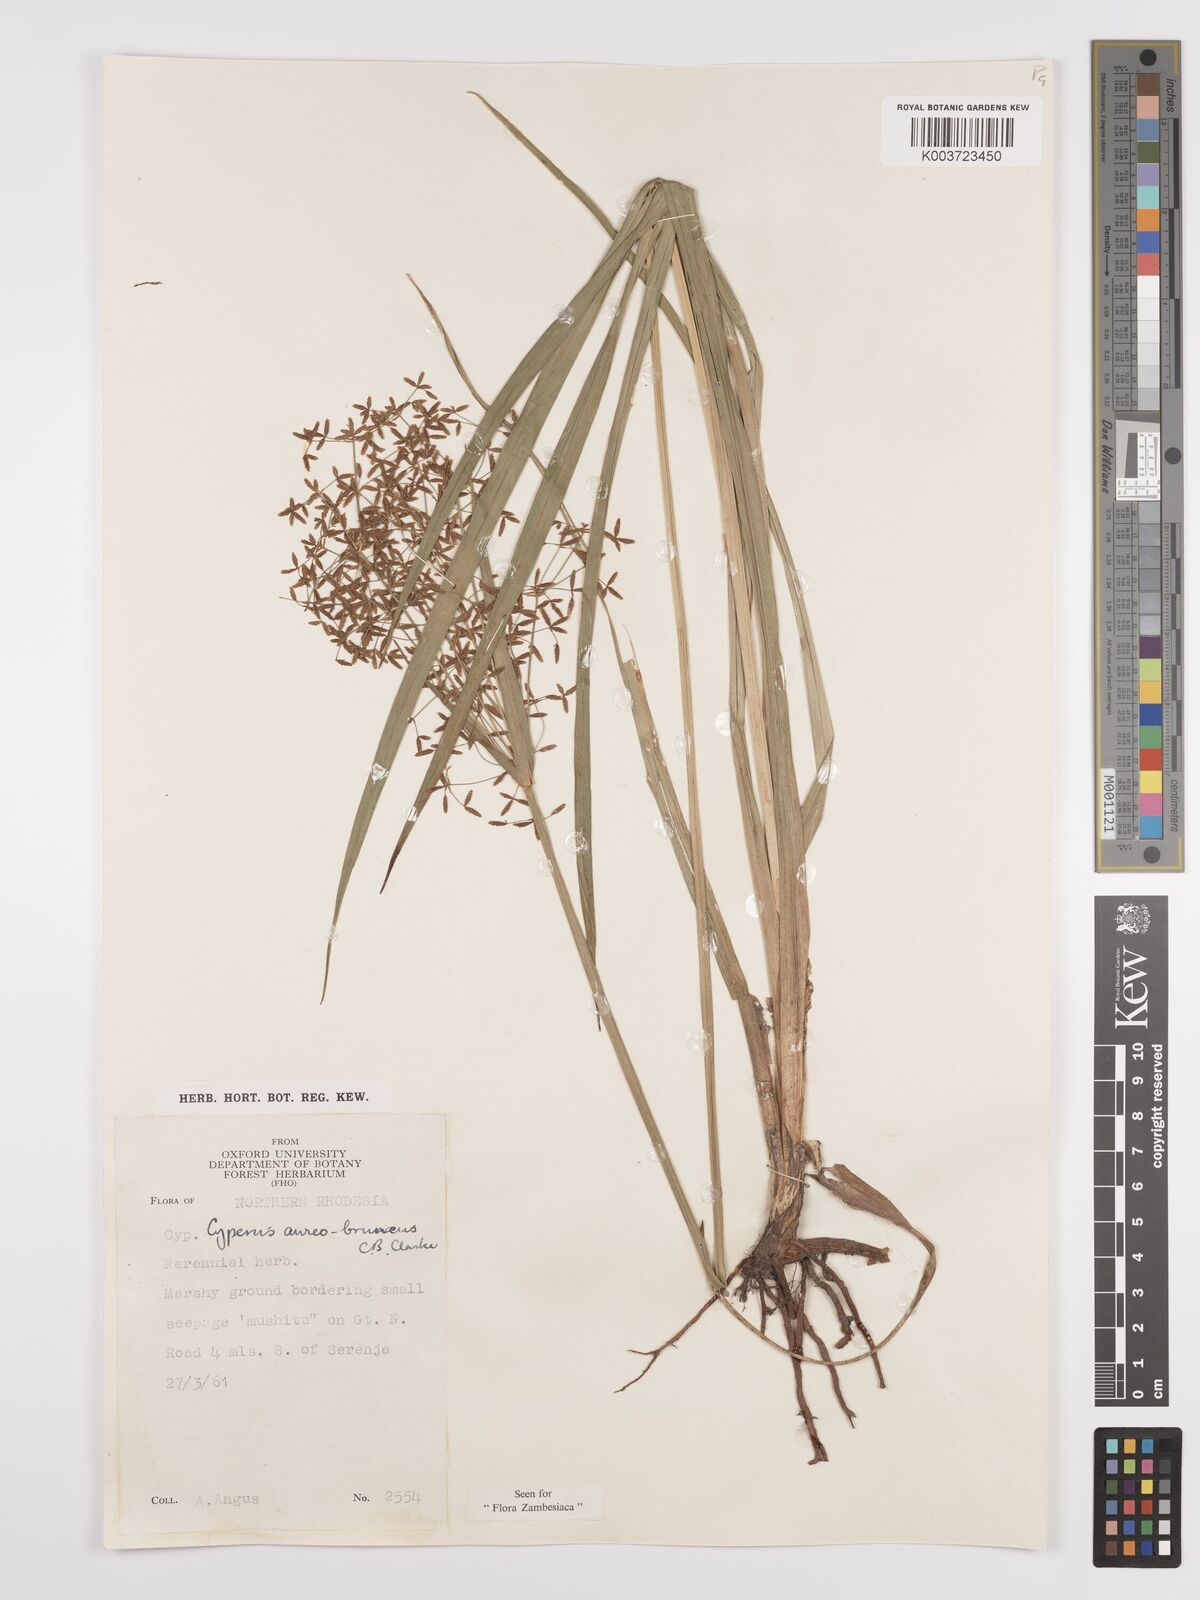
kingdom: Plantae
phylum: Tracheophyta
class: Liliopsida
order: Poales
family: Cyperaceae
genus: Cyperus
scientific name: Cyperus aureobrunneus
